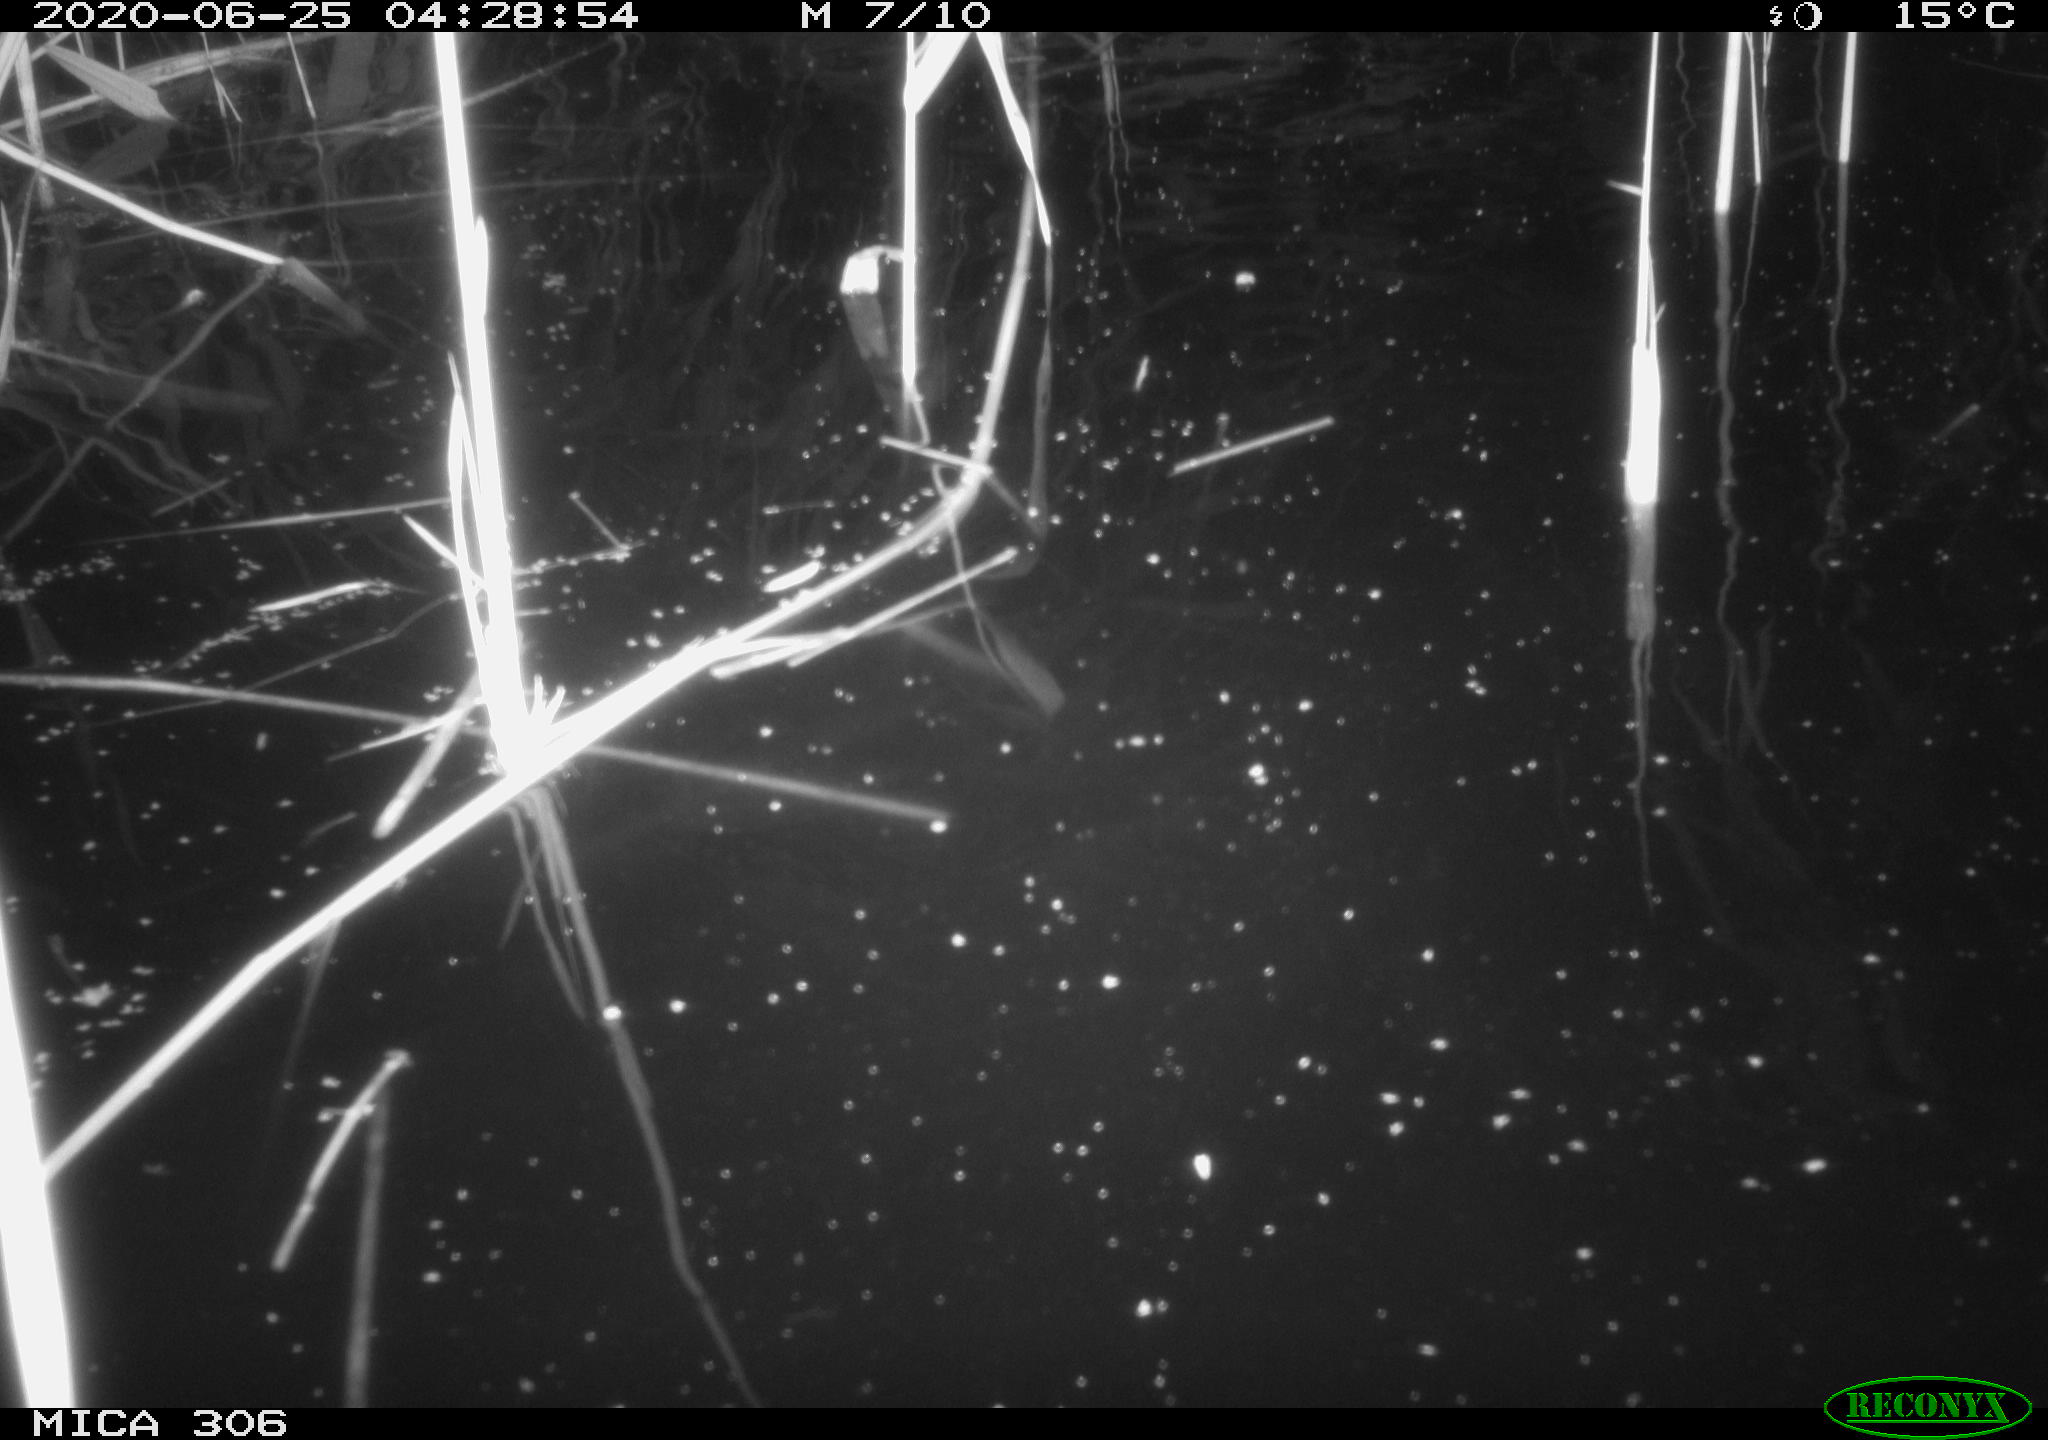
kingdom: Animalia
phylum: Chordata
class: Mammalia
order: Rodentia
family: Muridae
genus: Rattus
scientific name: Rattus norvegicus
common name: Brown rat
